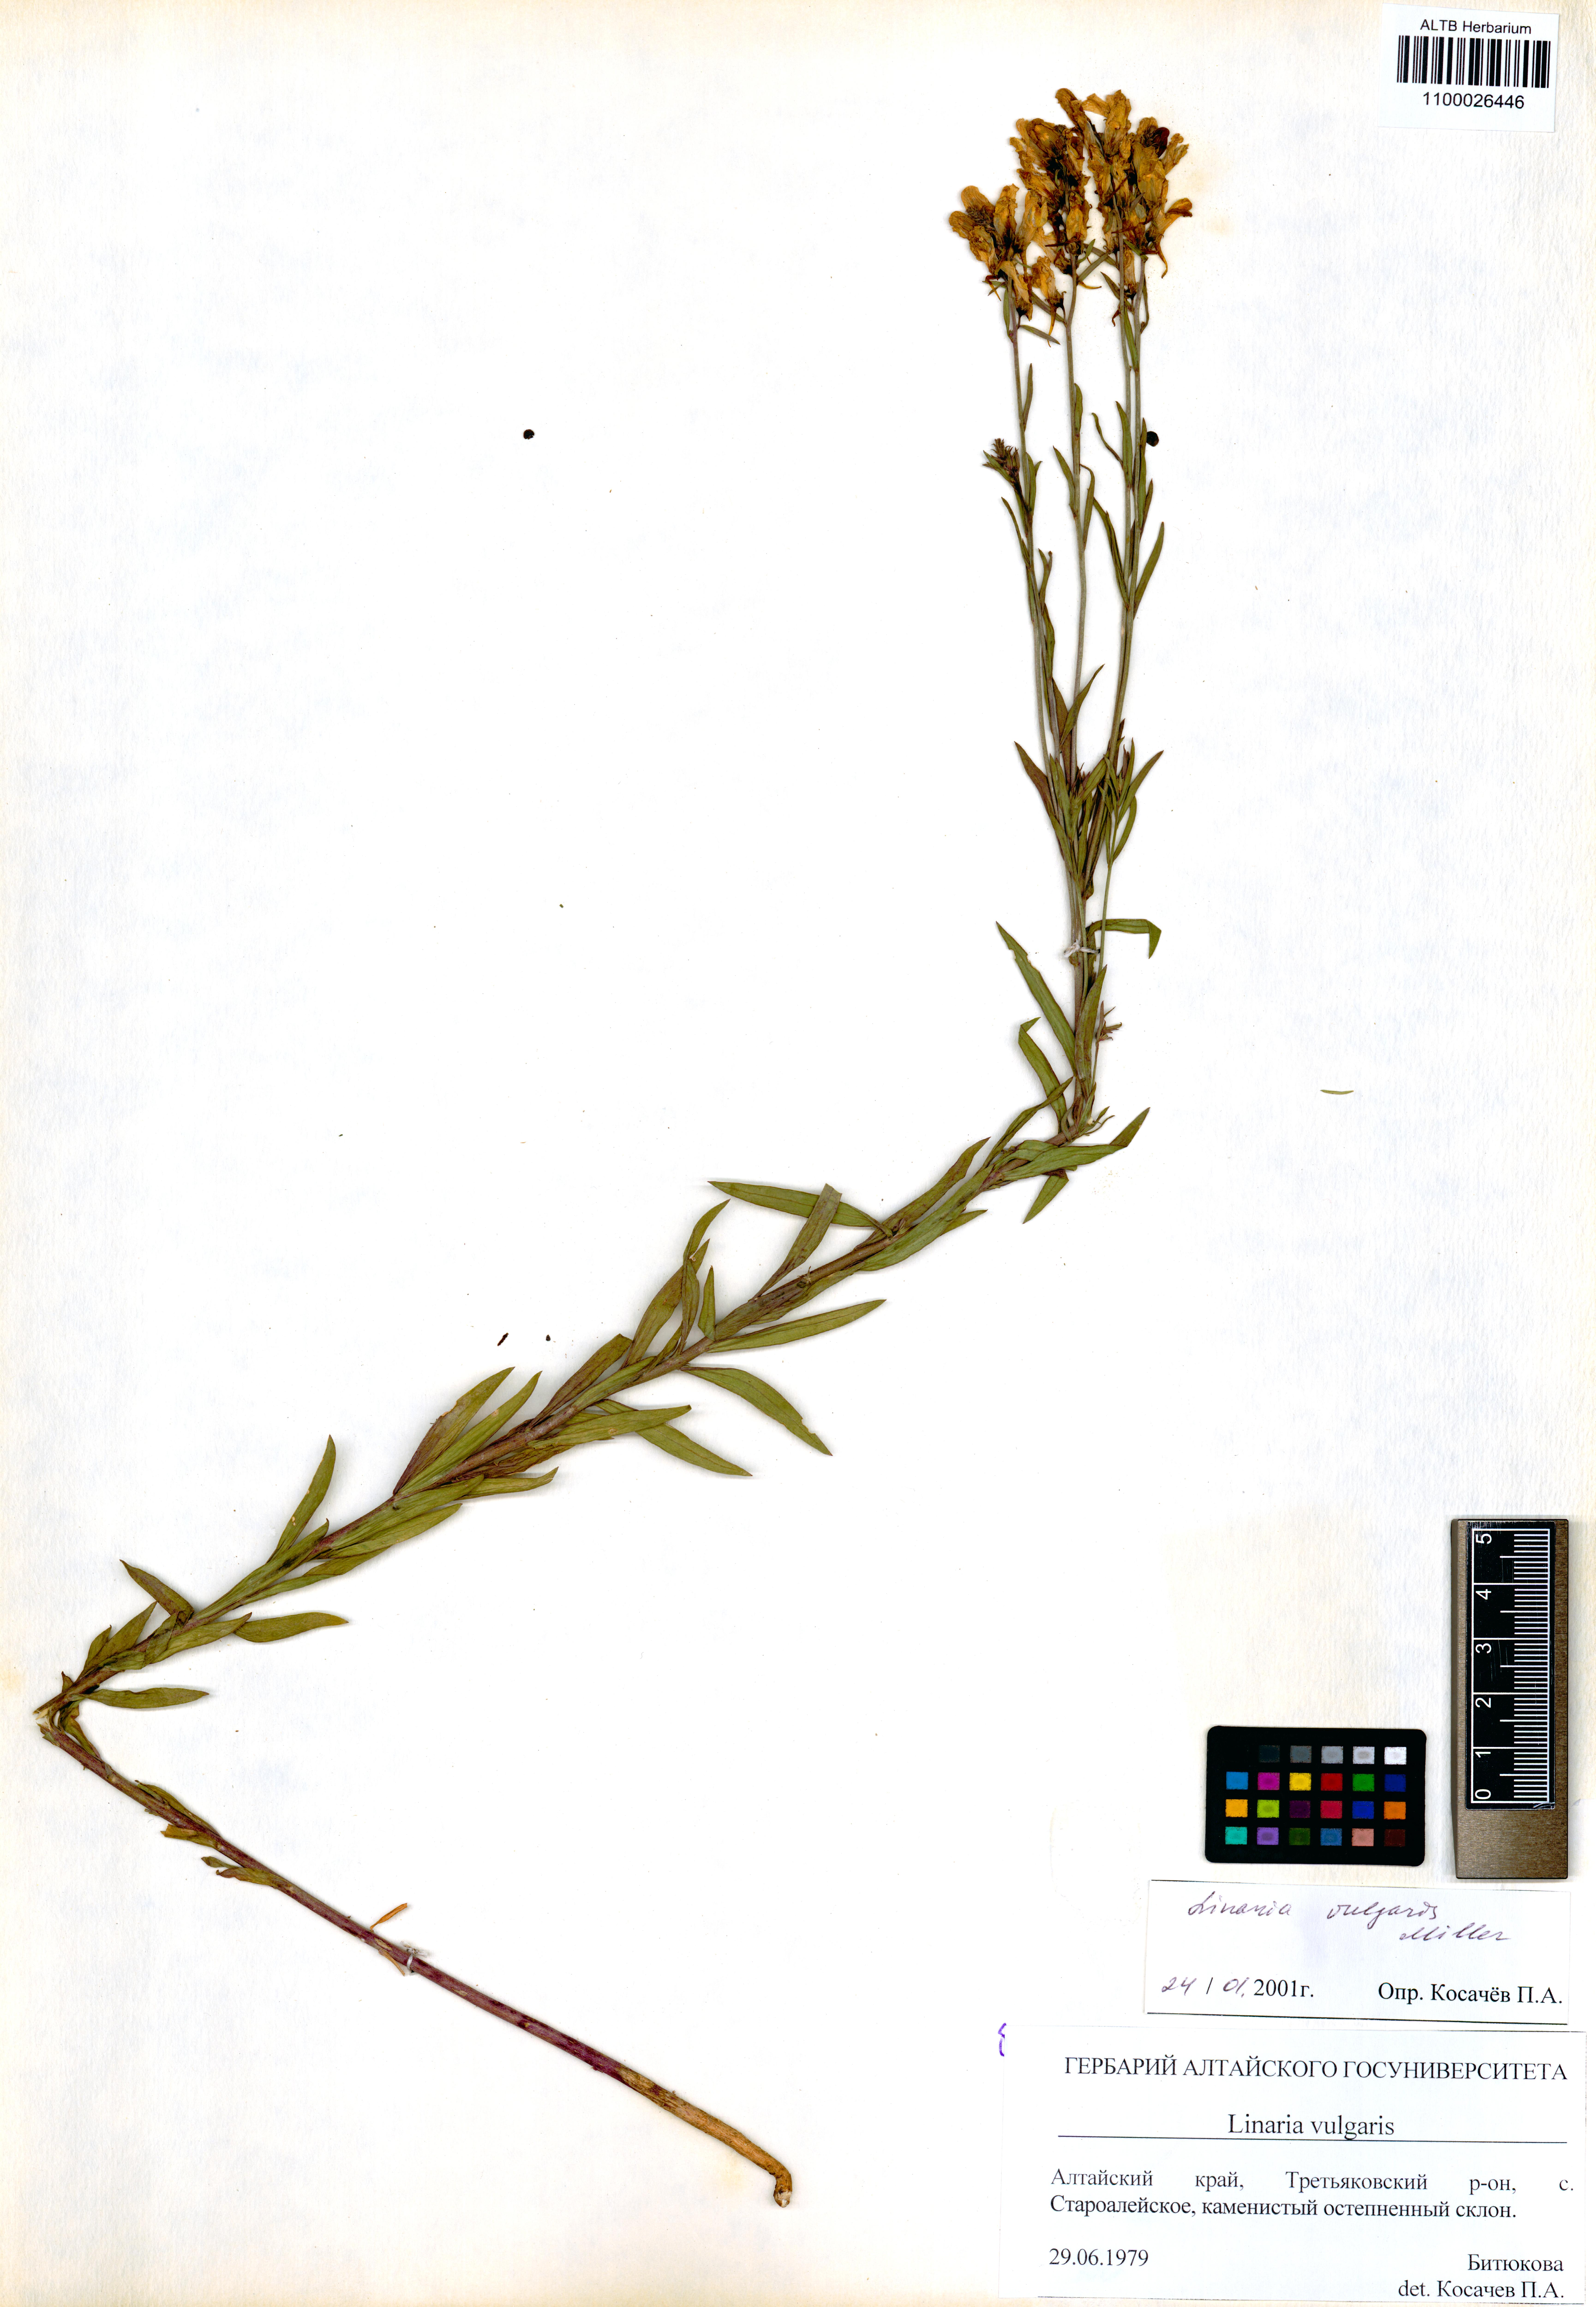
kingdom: Plantae
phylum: Tracheophyta
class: Magnoliopsida
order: Lamiales
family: Plantaginaceae
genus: Linaria
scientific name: Linaria vulgaris
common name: Butter and eggs
